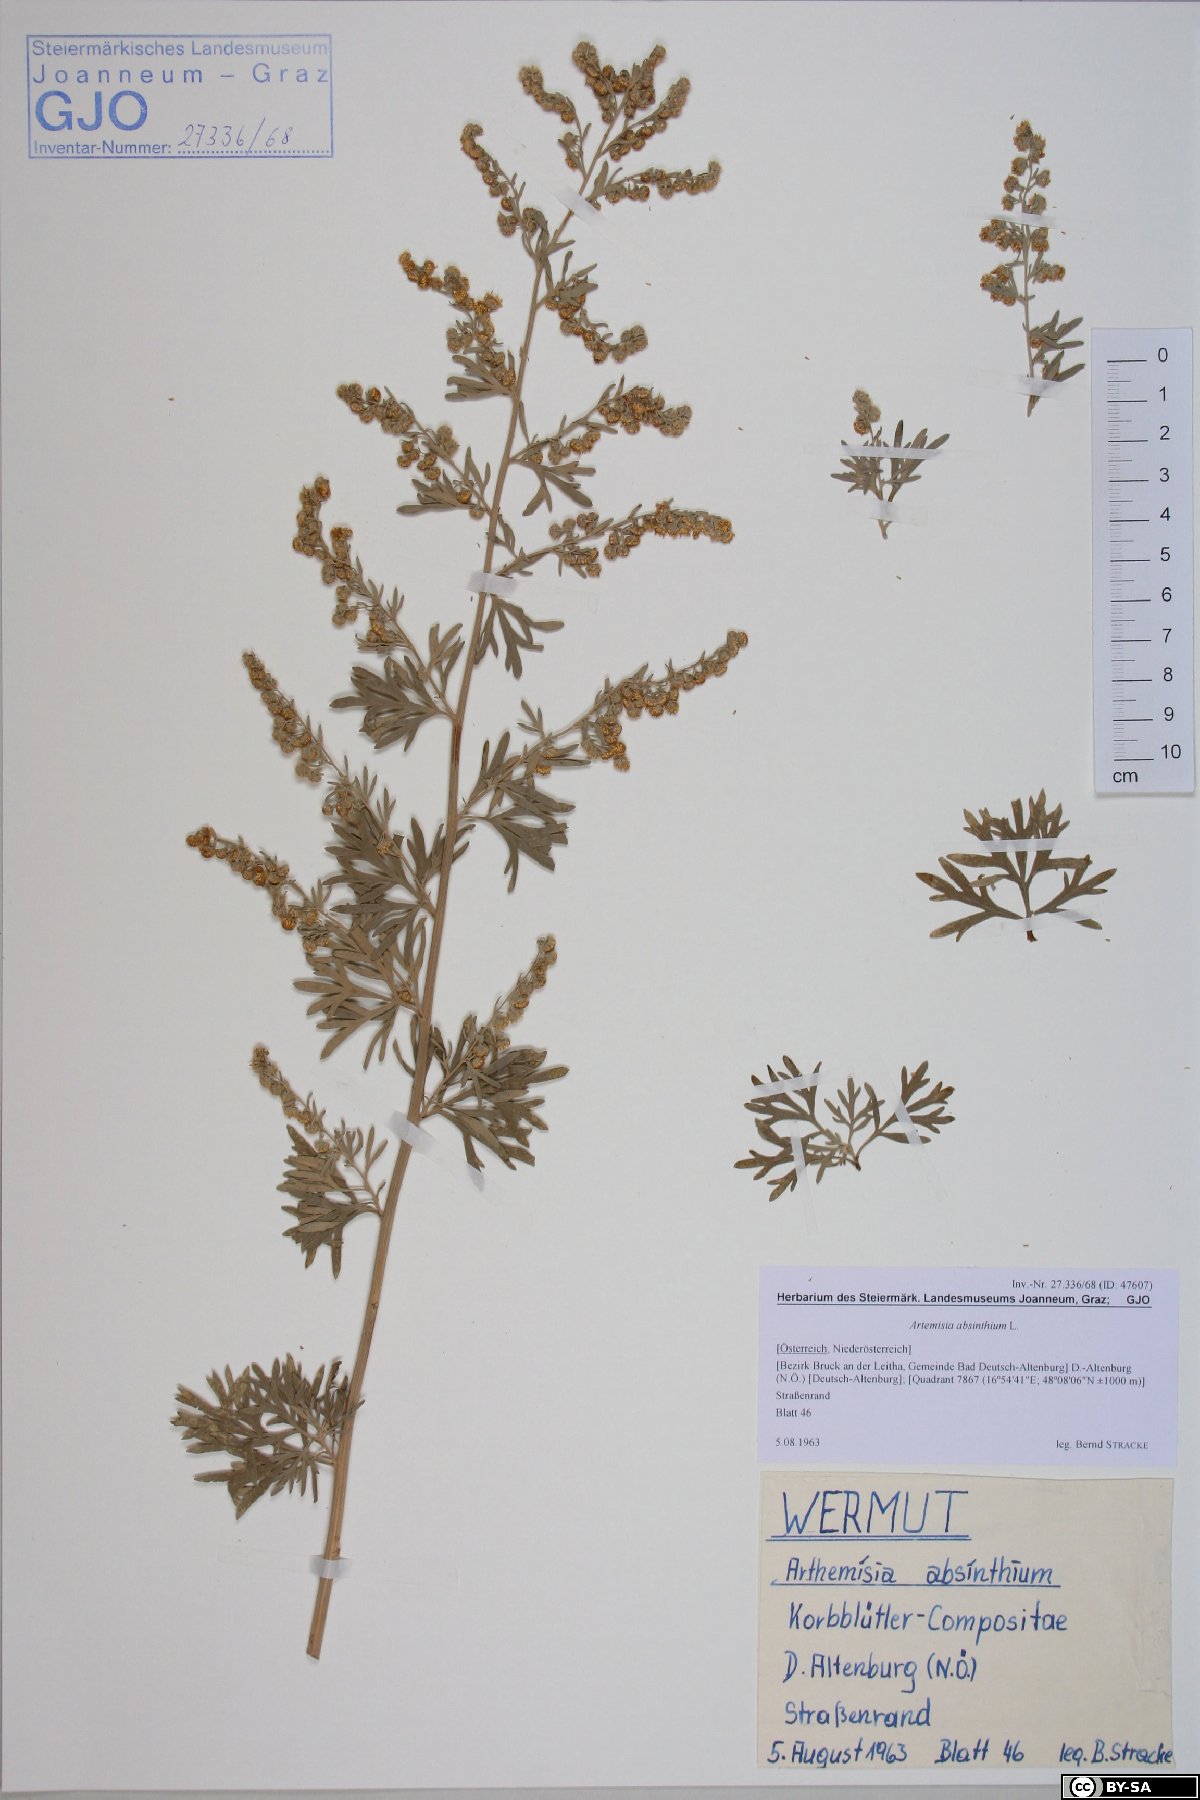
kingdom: Plantae
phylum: Tracheophyta
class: Magnoliopsida
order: Asterales
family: Asteraceae
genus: Artemisia
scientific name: Artemisia absinthium
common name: Wormwood
